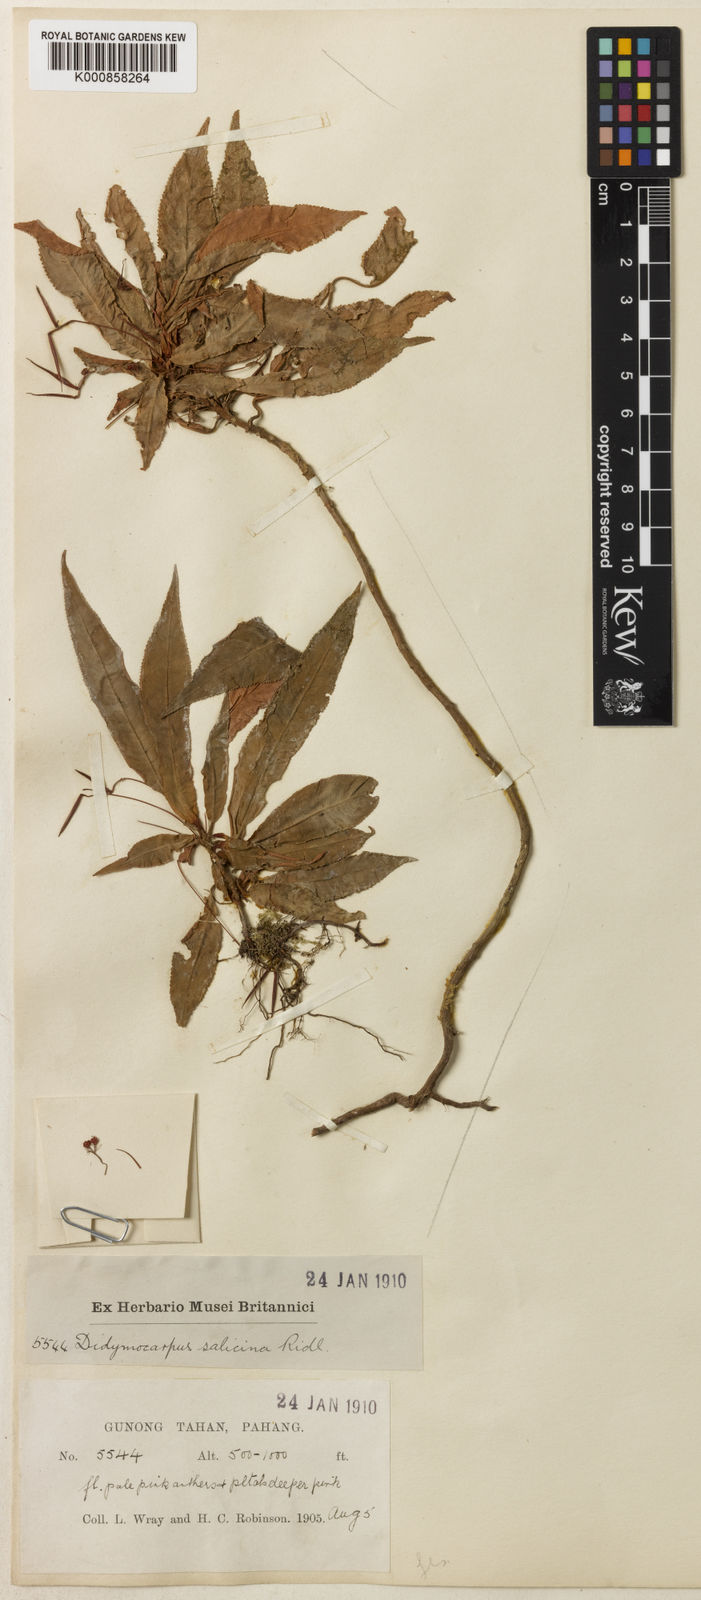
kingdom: Plantae
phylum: Tracheophyta
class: Magnoliopsida
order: Lamiales
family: Gesneriaceae
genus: Codonoboea
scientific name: Codonoboea salicina
